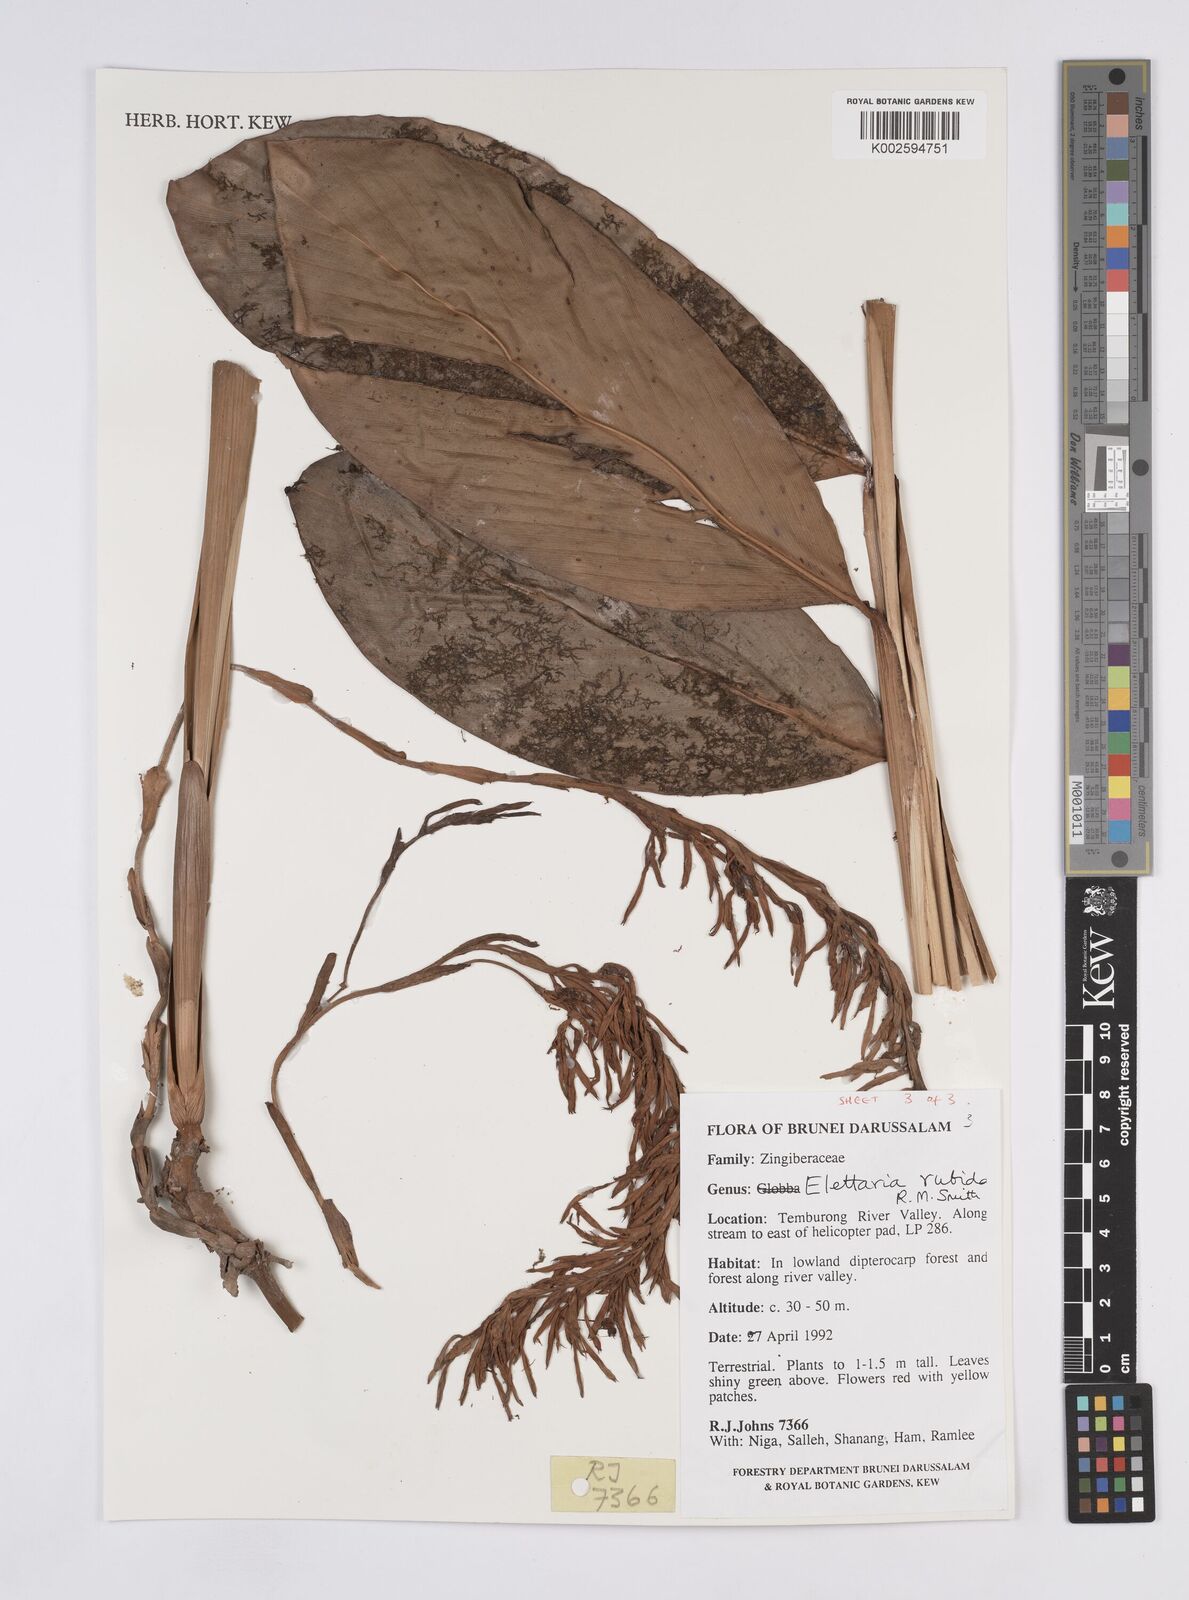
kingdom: Plantae
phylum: Tracheophyta
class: Liliopsida
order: Zingiberales
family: Zingiberaceae
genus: Sulettaria
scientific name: Sulettaria rubida
